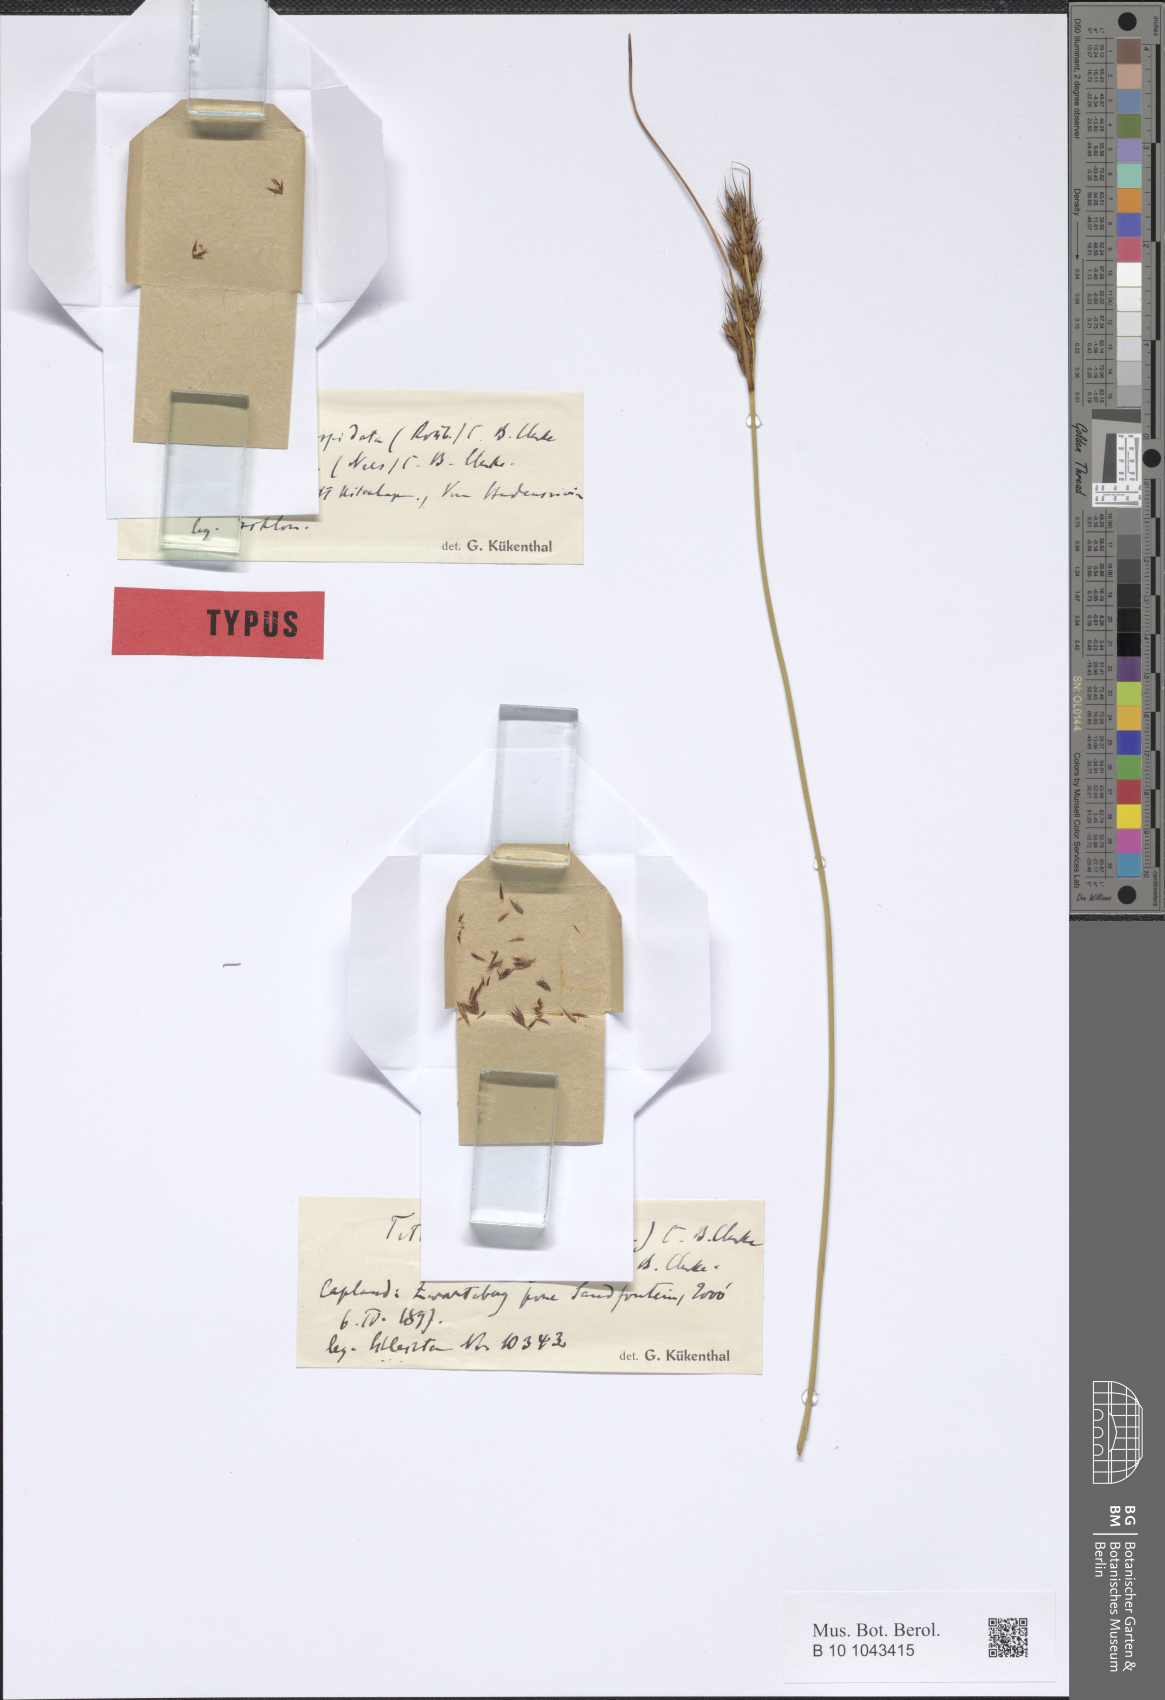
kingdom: Plantae
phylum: Tracheophyta
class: Liliopsida
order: Poales
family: Cyperaceae
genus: Schoenus
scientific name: Schoenus cuspidatus
